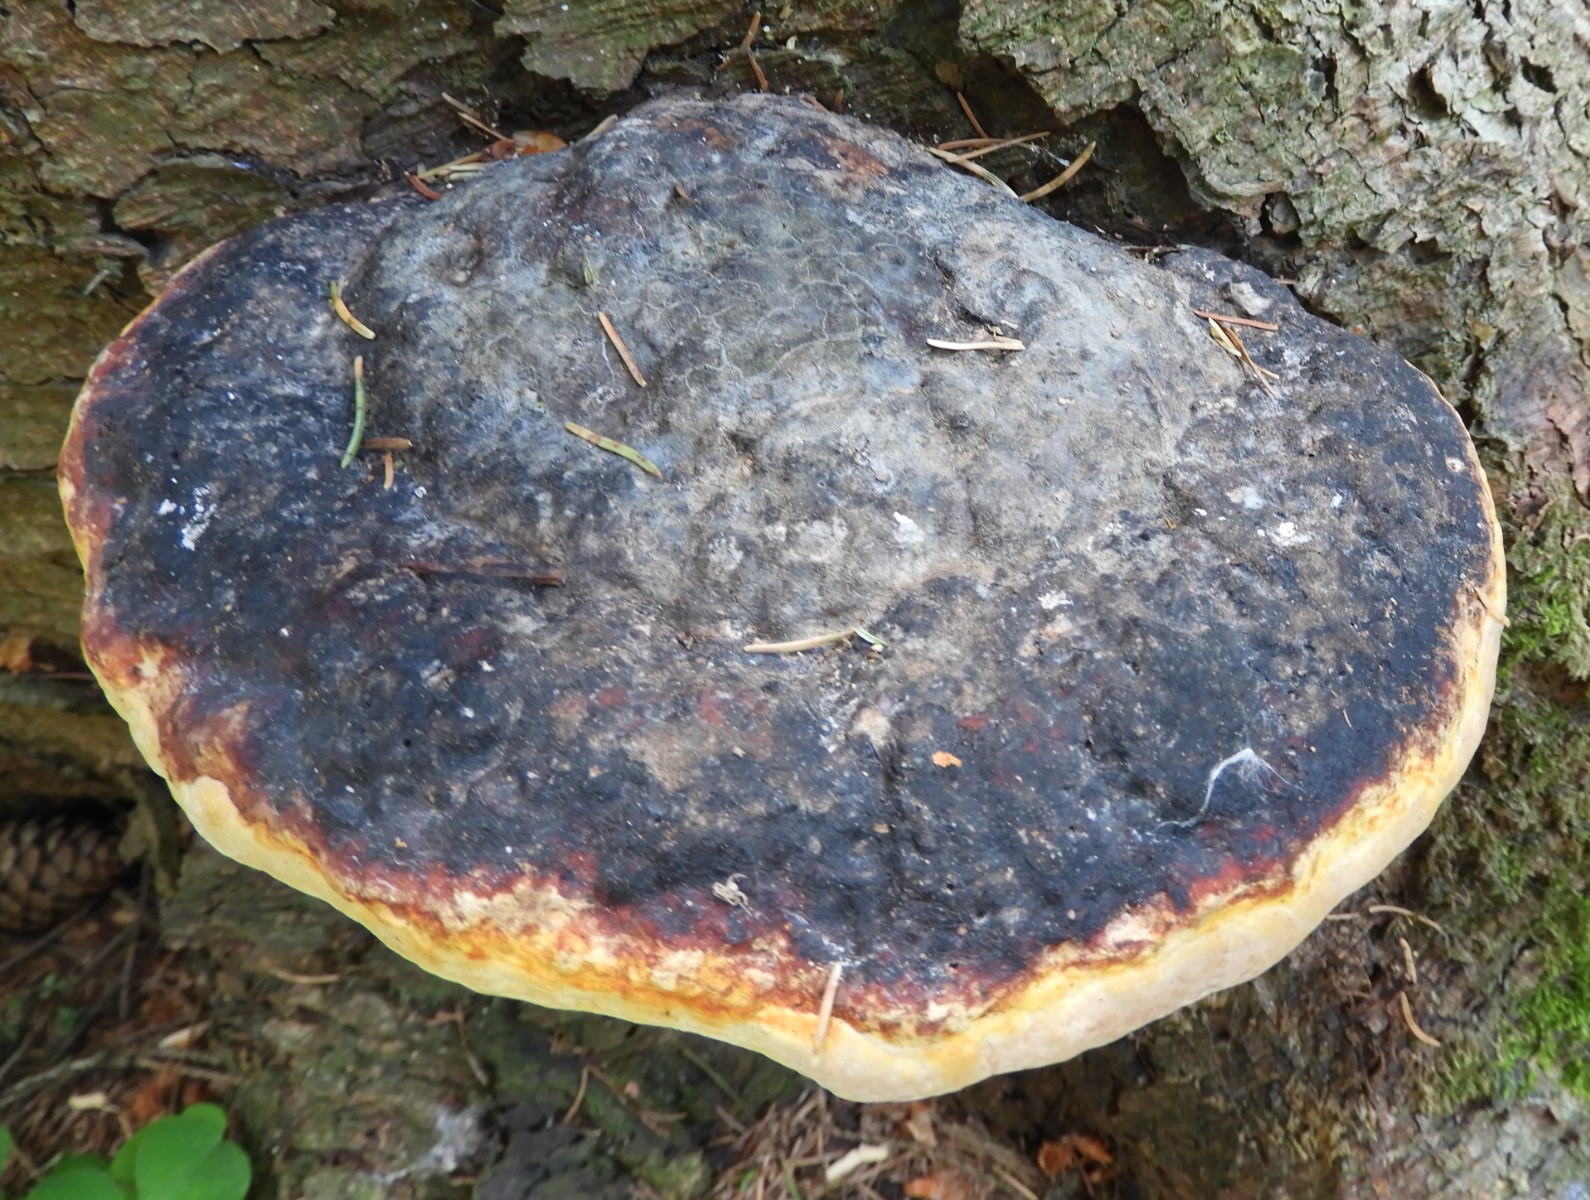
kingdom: Fungi
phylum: Basidiomycota
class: Agaricomycetes
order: Polyporales
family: Fomitopsidaceae
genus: Fomitopsis
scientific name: Fomitopsis pinicola
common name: randbæltet hovporesvamp
